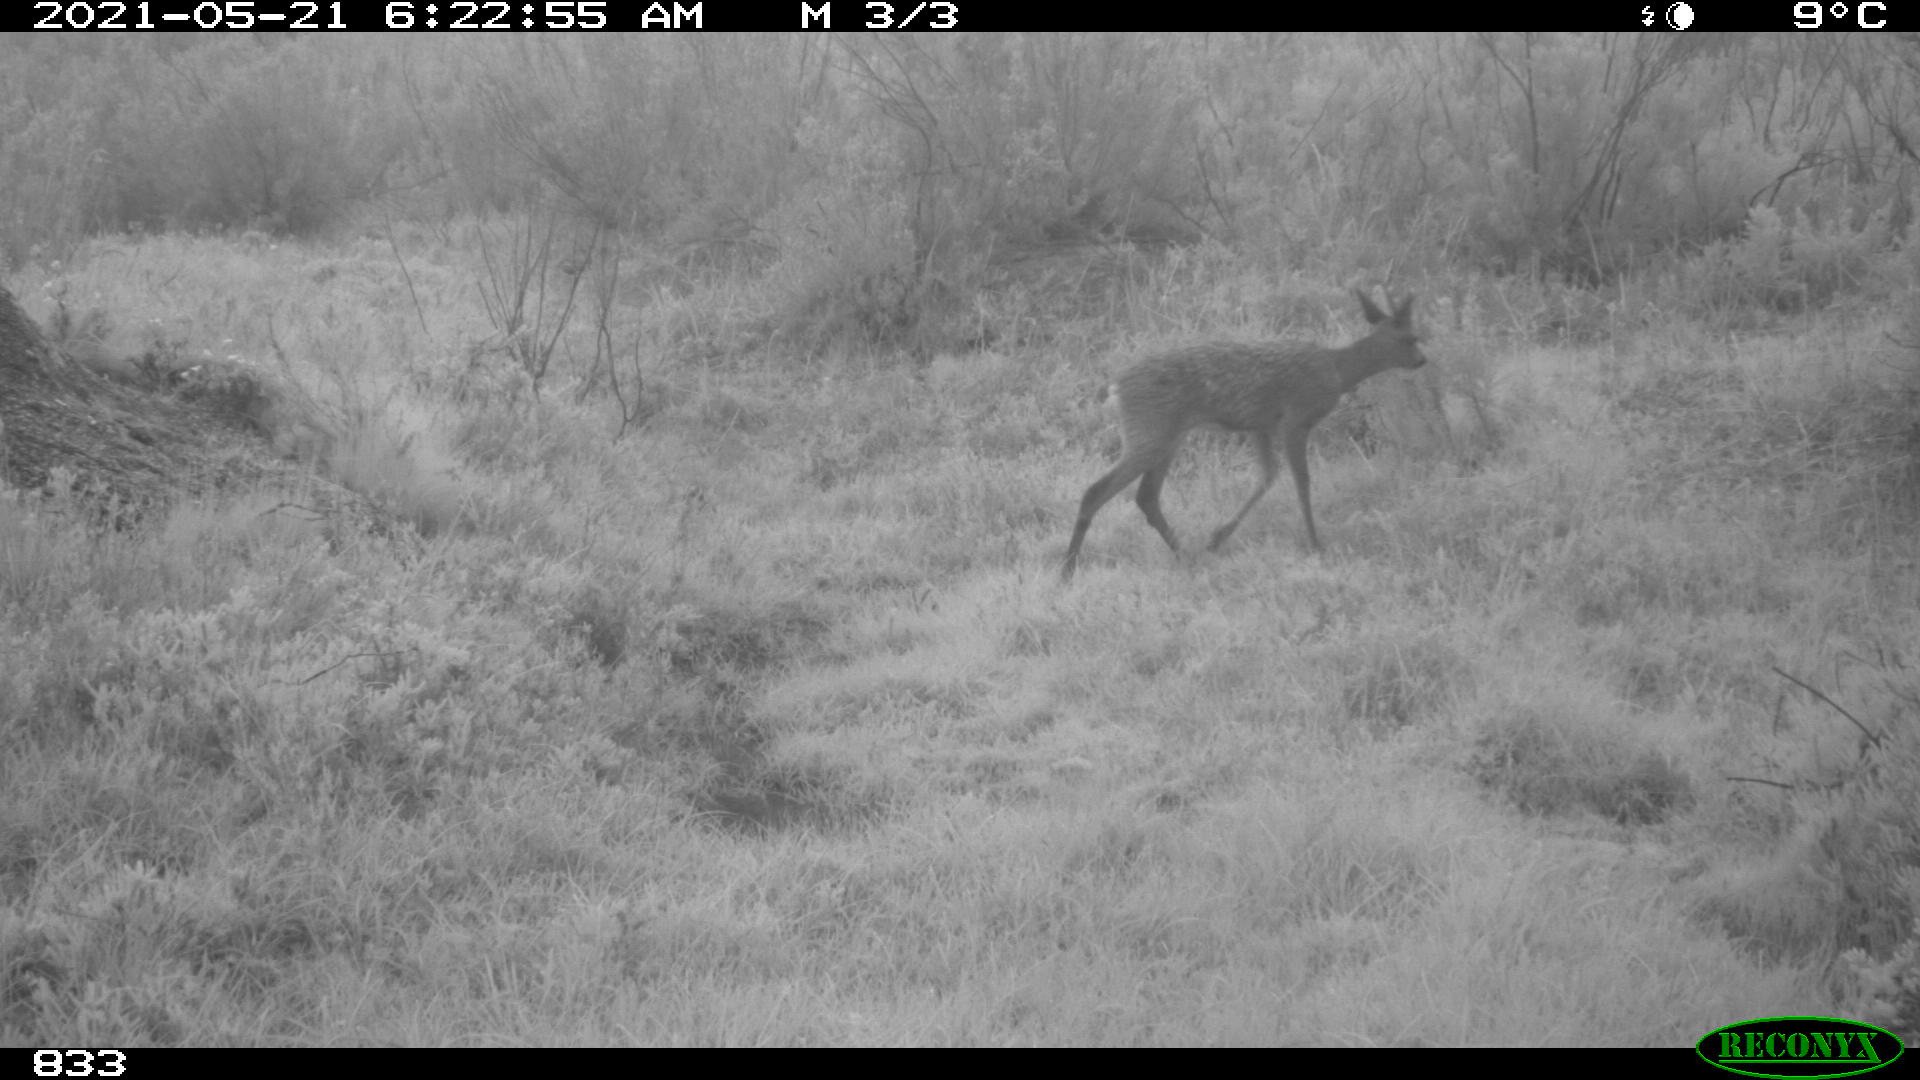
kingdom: Animalia
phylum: Chordata
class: Mammalia
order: Artiodactyla
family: Cervidae
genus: Capreolus
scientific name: Capreolus capreolus
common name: Western roe deer
